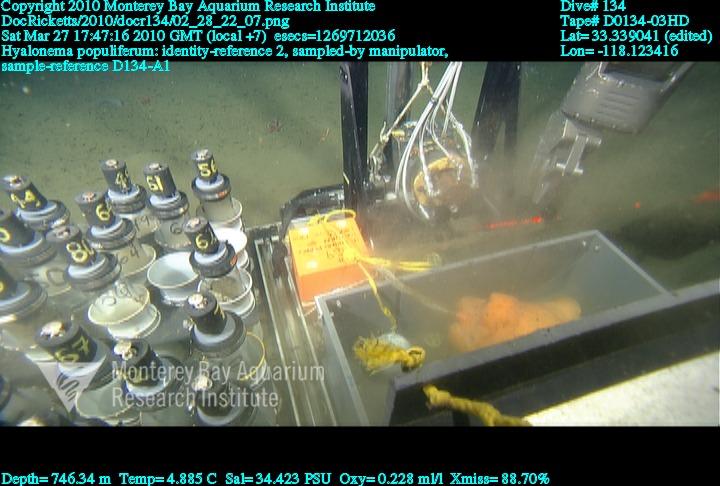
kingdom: Animalia
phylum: Porifera
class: Hexactinellida
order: Amphidiscosida
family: Hyalonematidae
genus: Hyalonema
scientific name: Hyalonema populiferum
